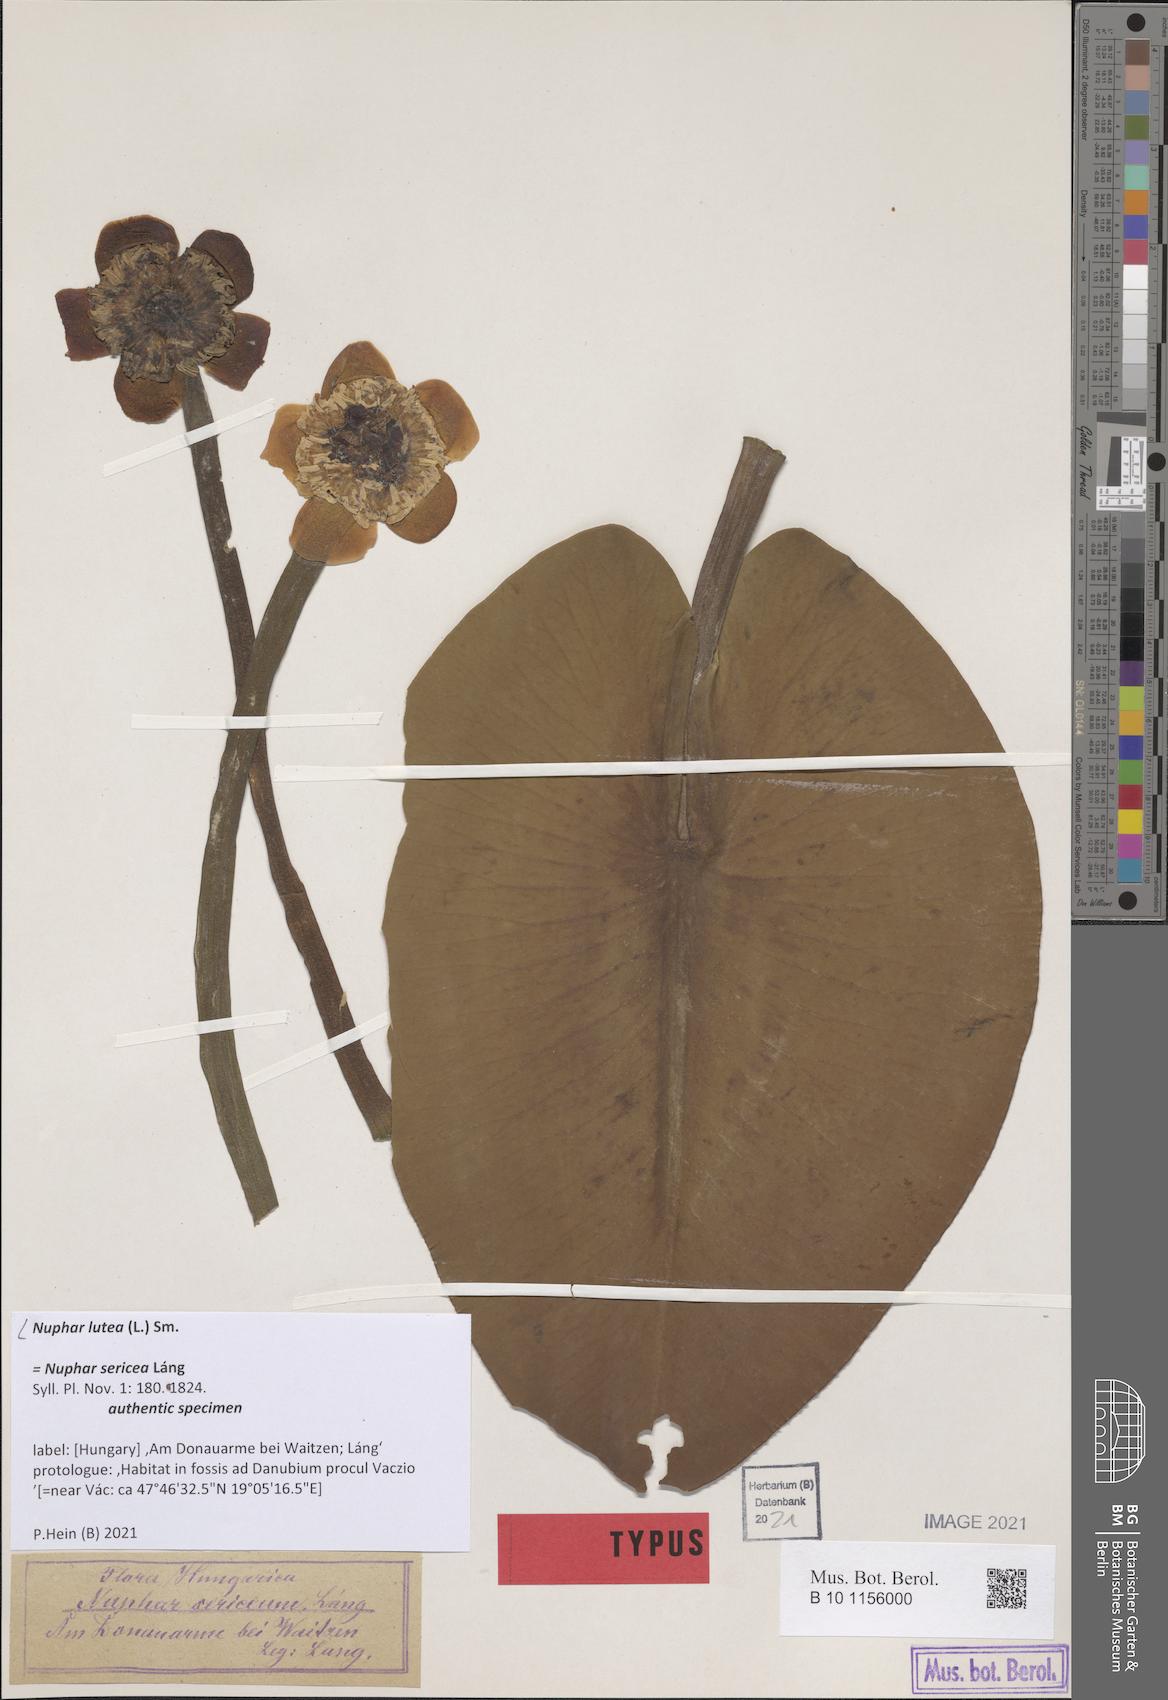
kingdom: Plantae
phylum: Tracheophyta
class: Magnoliopsida
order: Nymphaeales
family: Nymphaeaceae
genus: Nuphar
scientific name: Nuphar lutea
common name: Yellow water-lily
